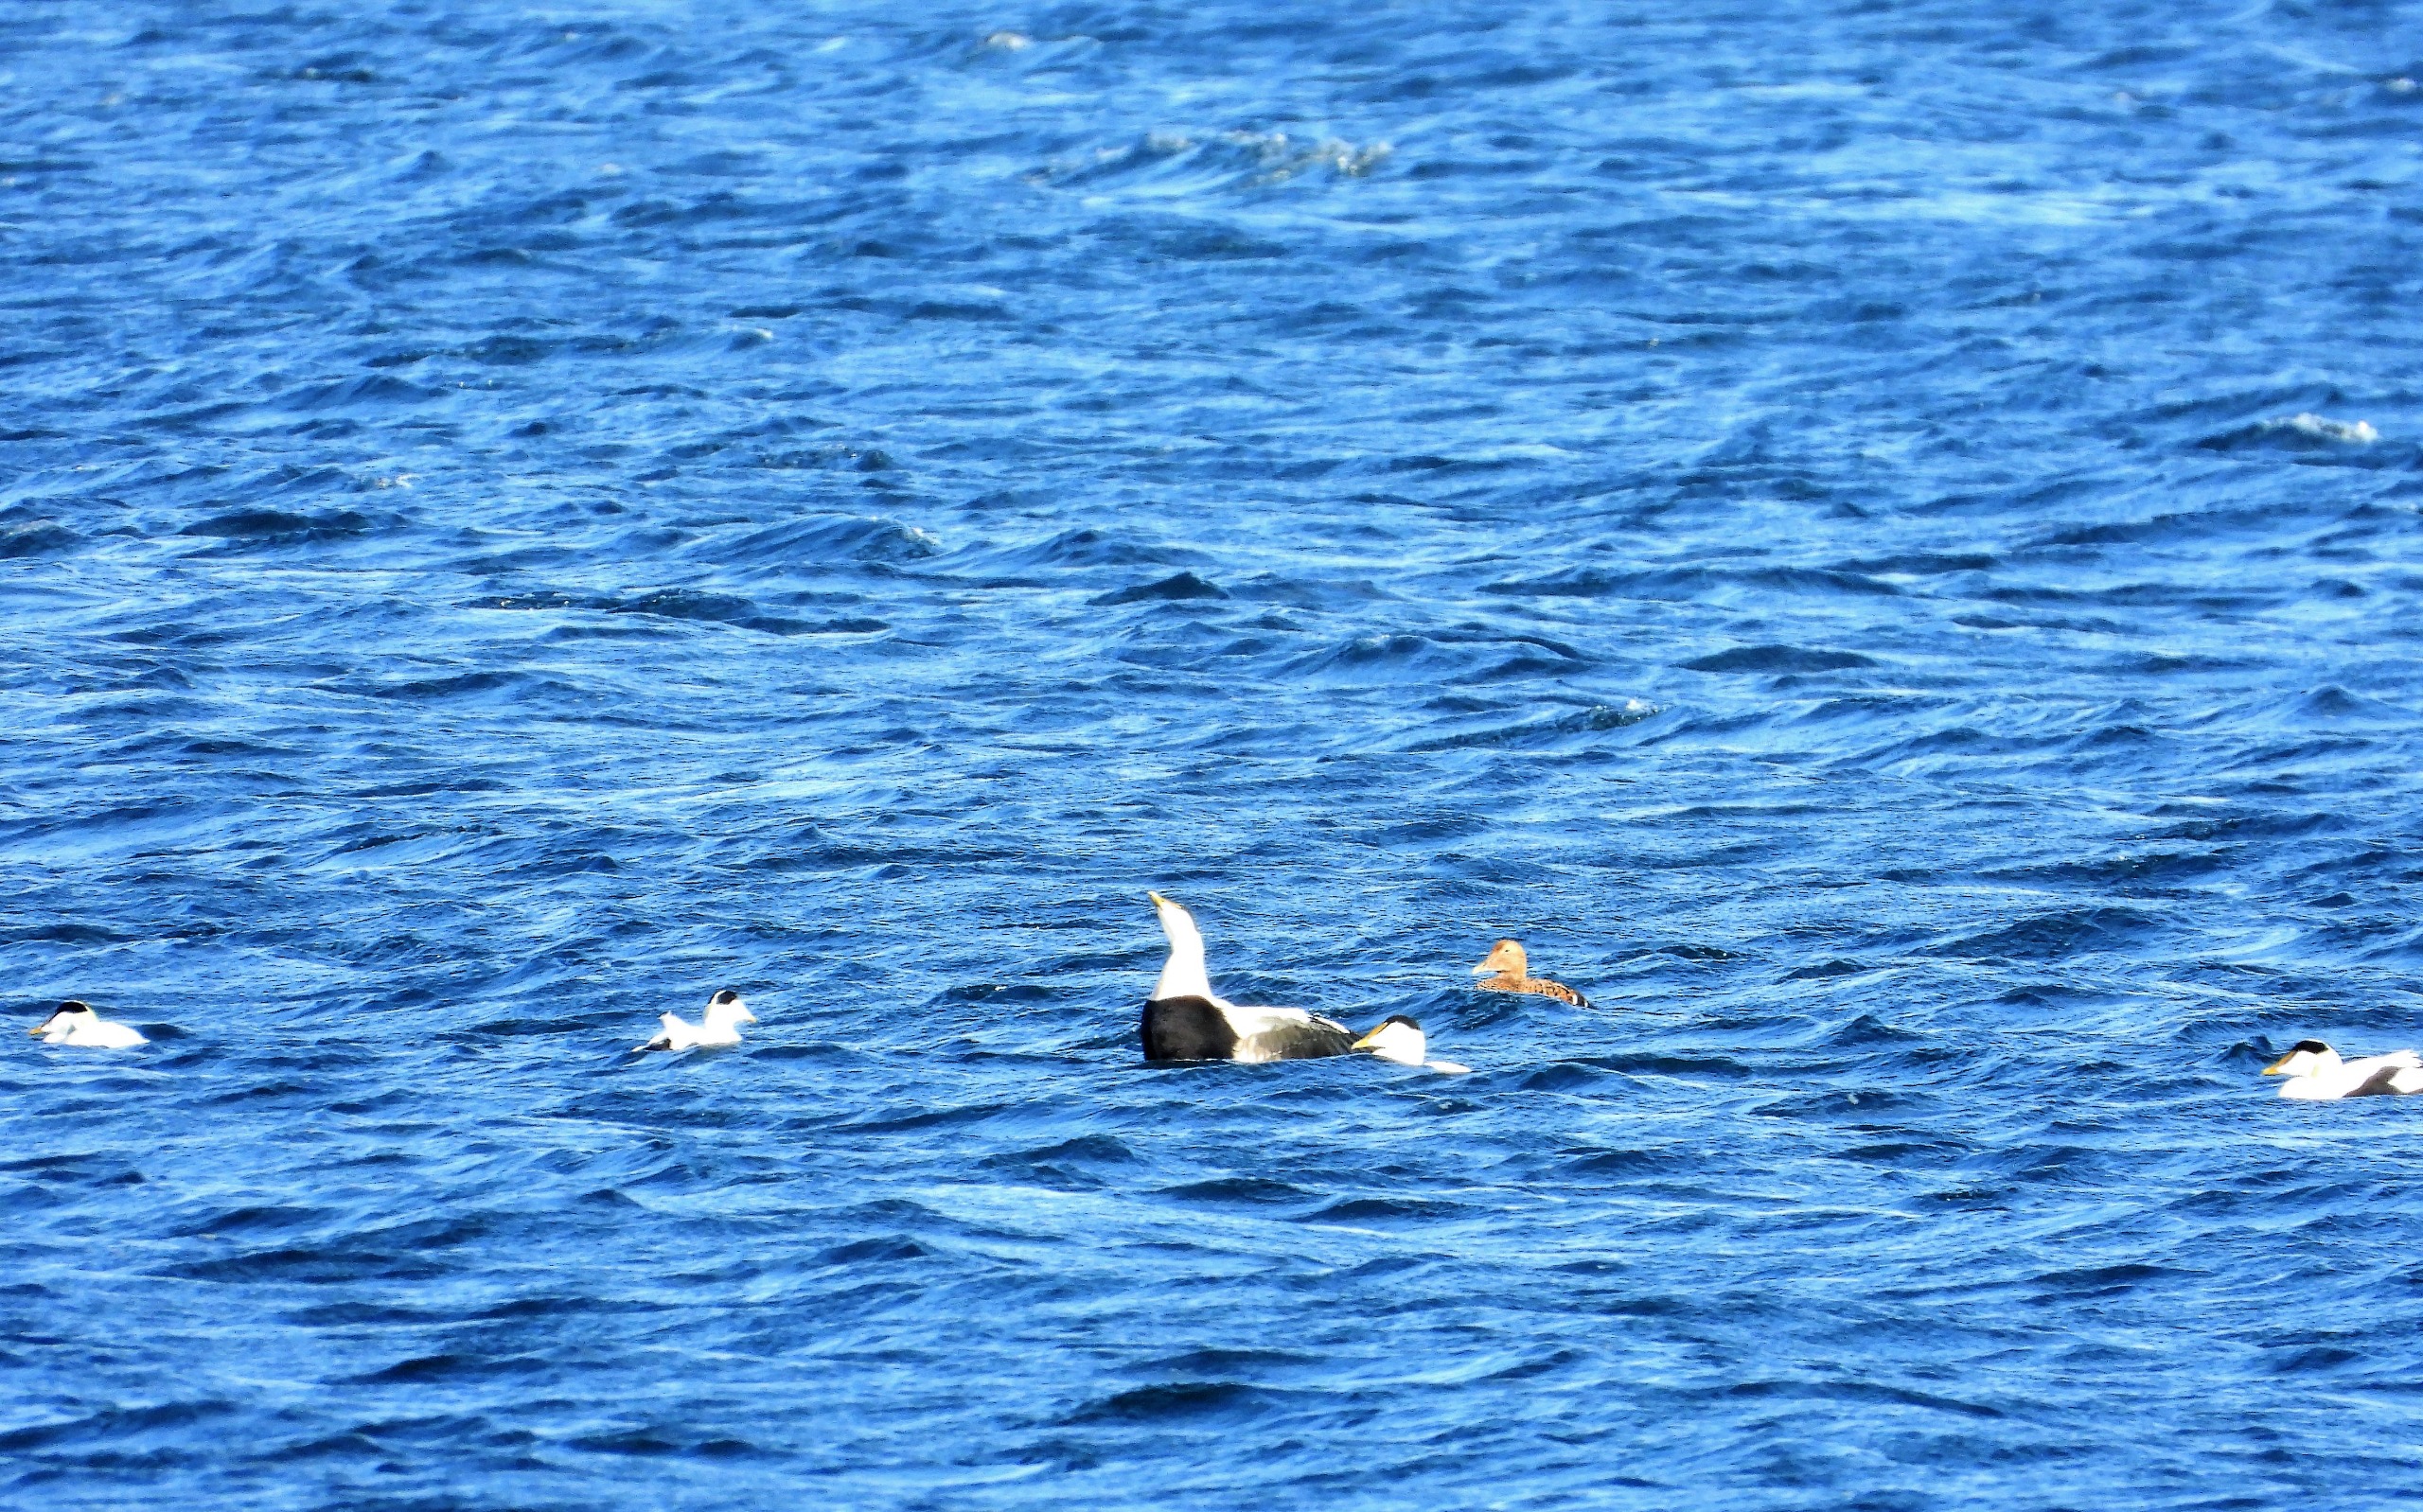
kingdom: Animalia
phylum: Chordata
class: Aves
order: Anseriformes
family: Anatidae
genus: Somateria
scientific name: Somateria mollissima
